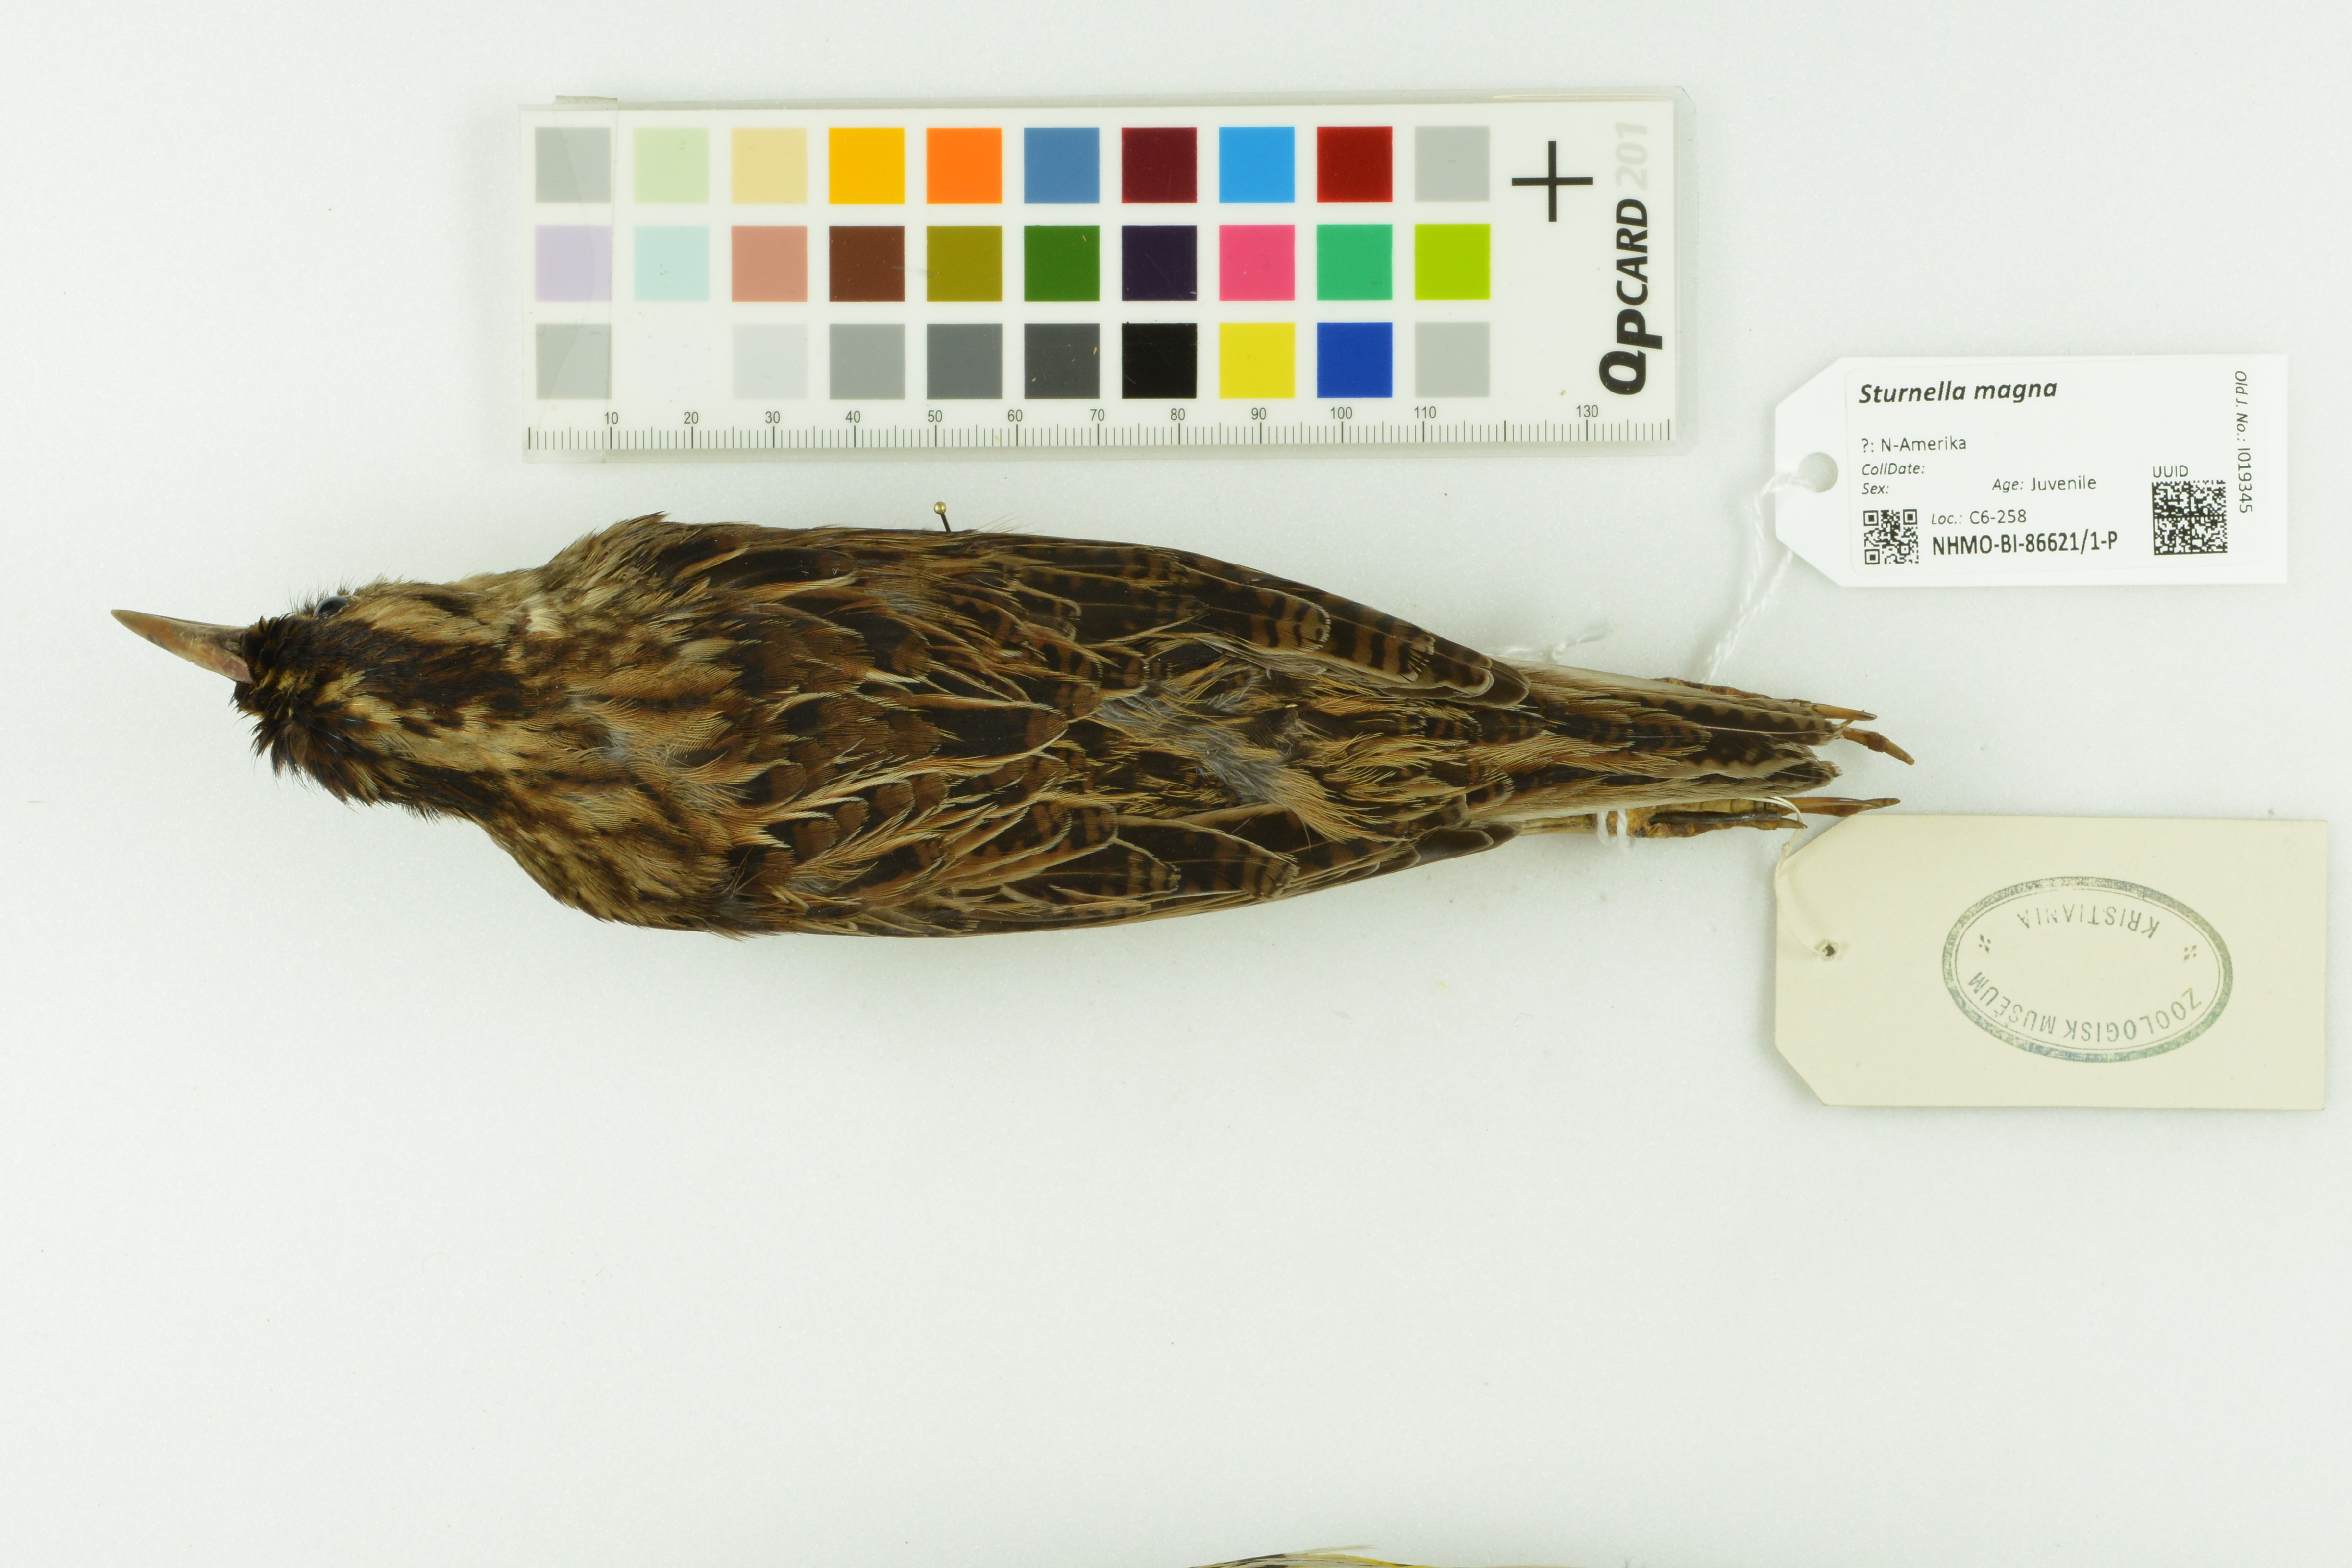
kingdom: Animalia
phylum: Chordata
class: Aves
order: Passeriformes
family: Icteridae
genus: Sturnella
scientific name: Sturnella magna
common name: Eastern meadowlark
